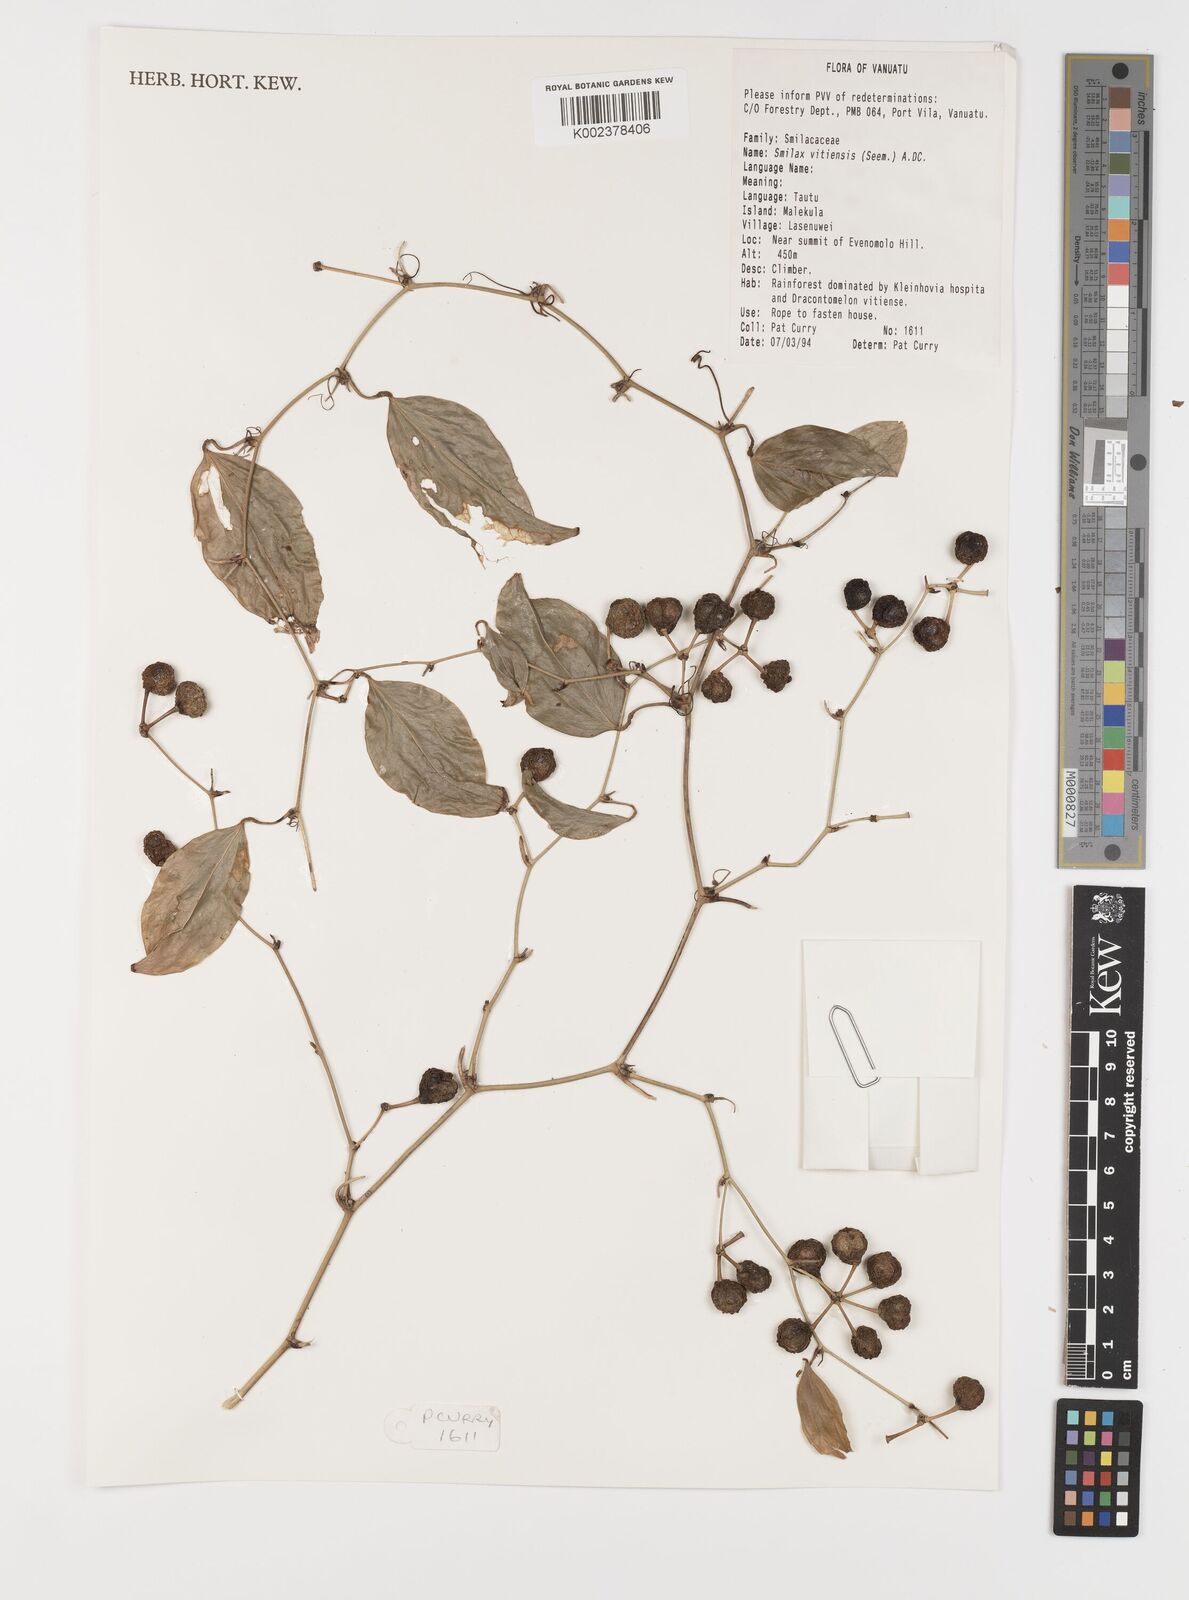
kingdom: Plantae
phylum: Tracheophyta
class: Liliopsida
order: Liliales
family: Smilacaceae
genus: Smilax
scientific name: Smilax vitiensis
